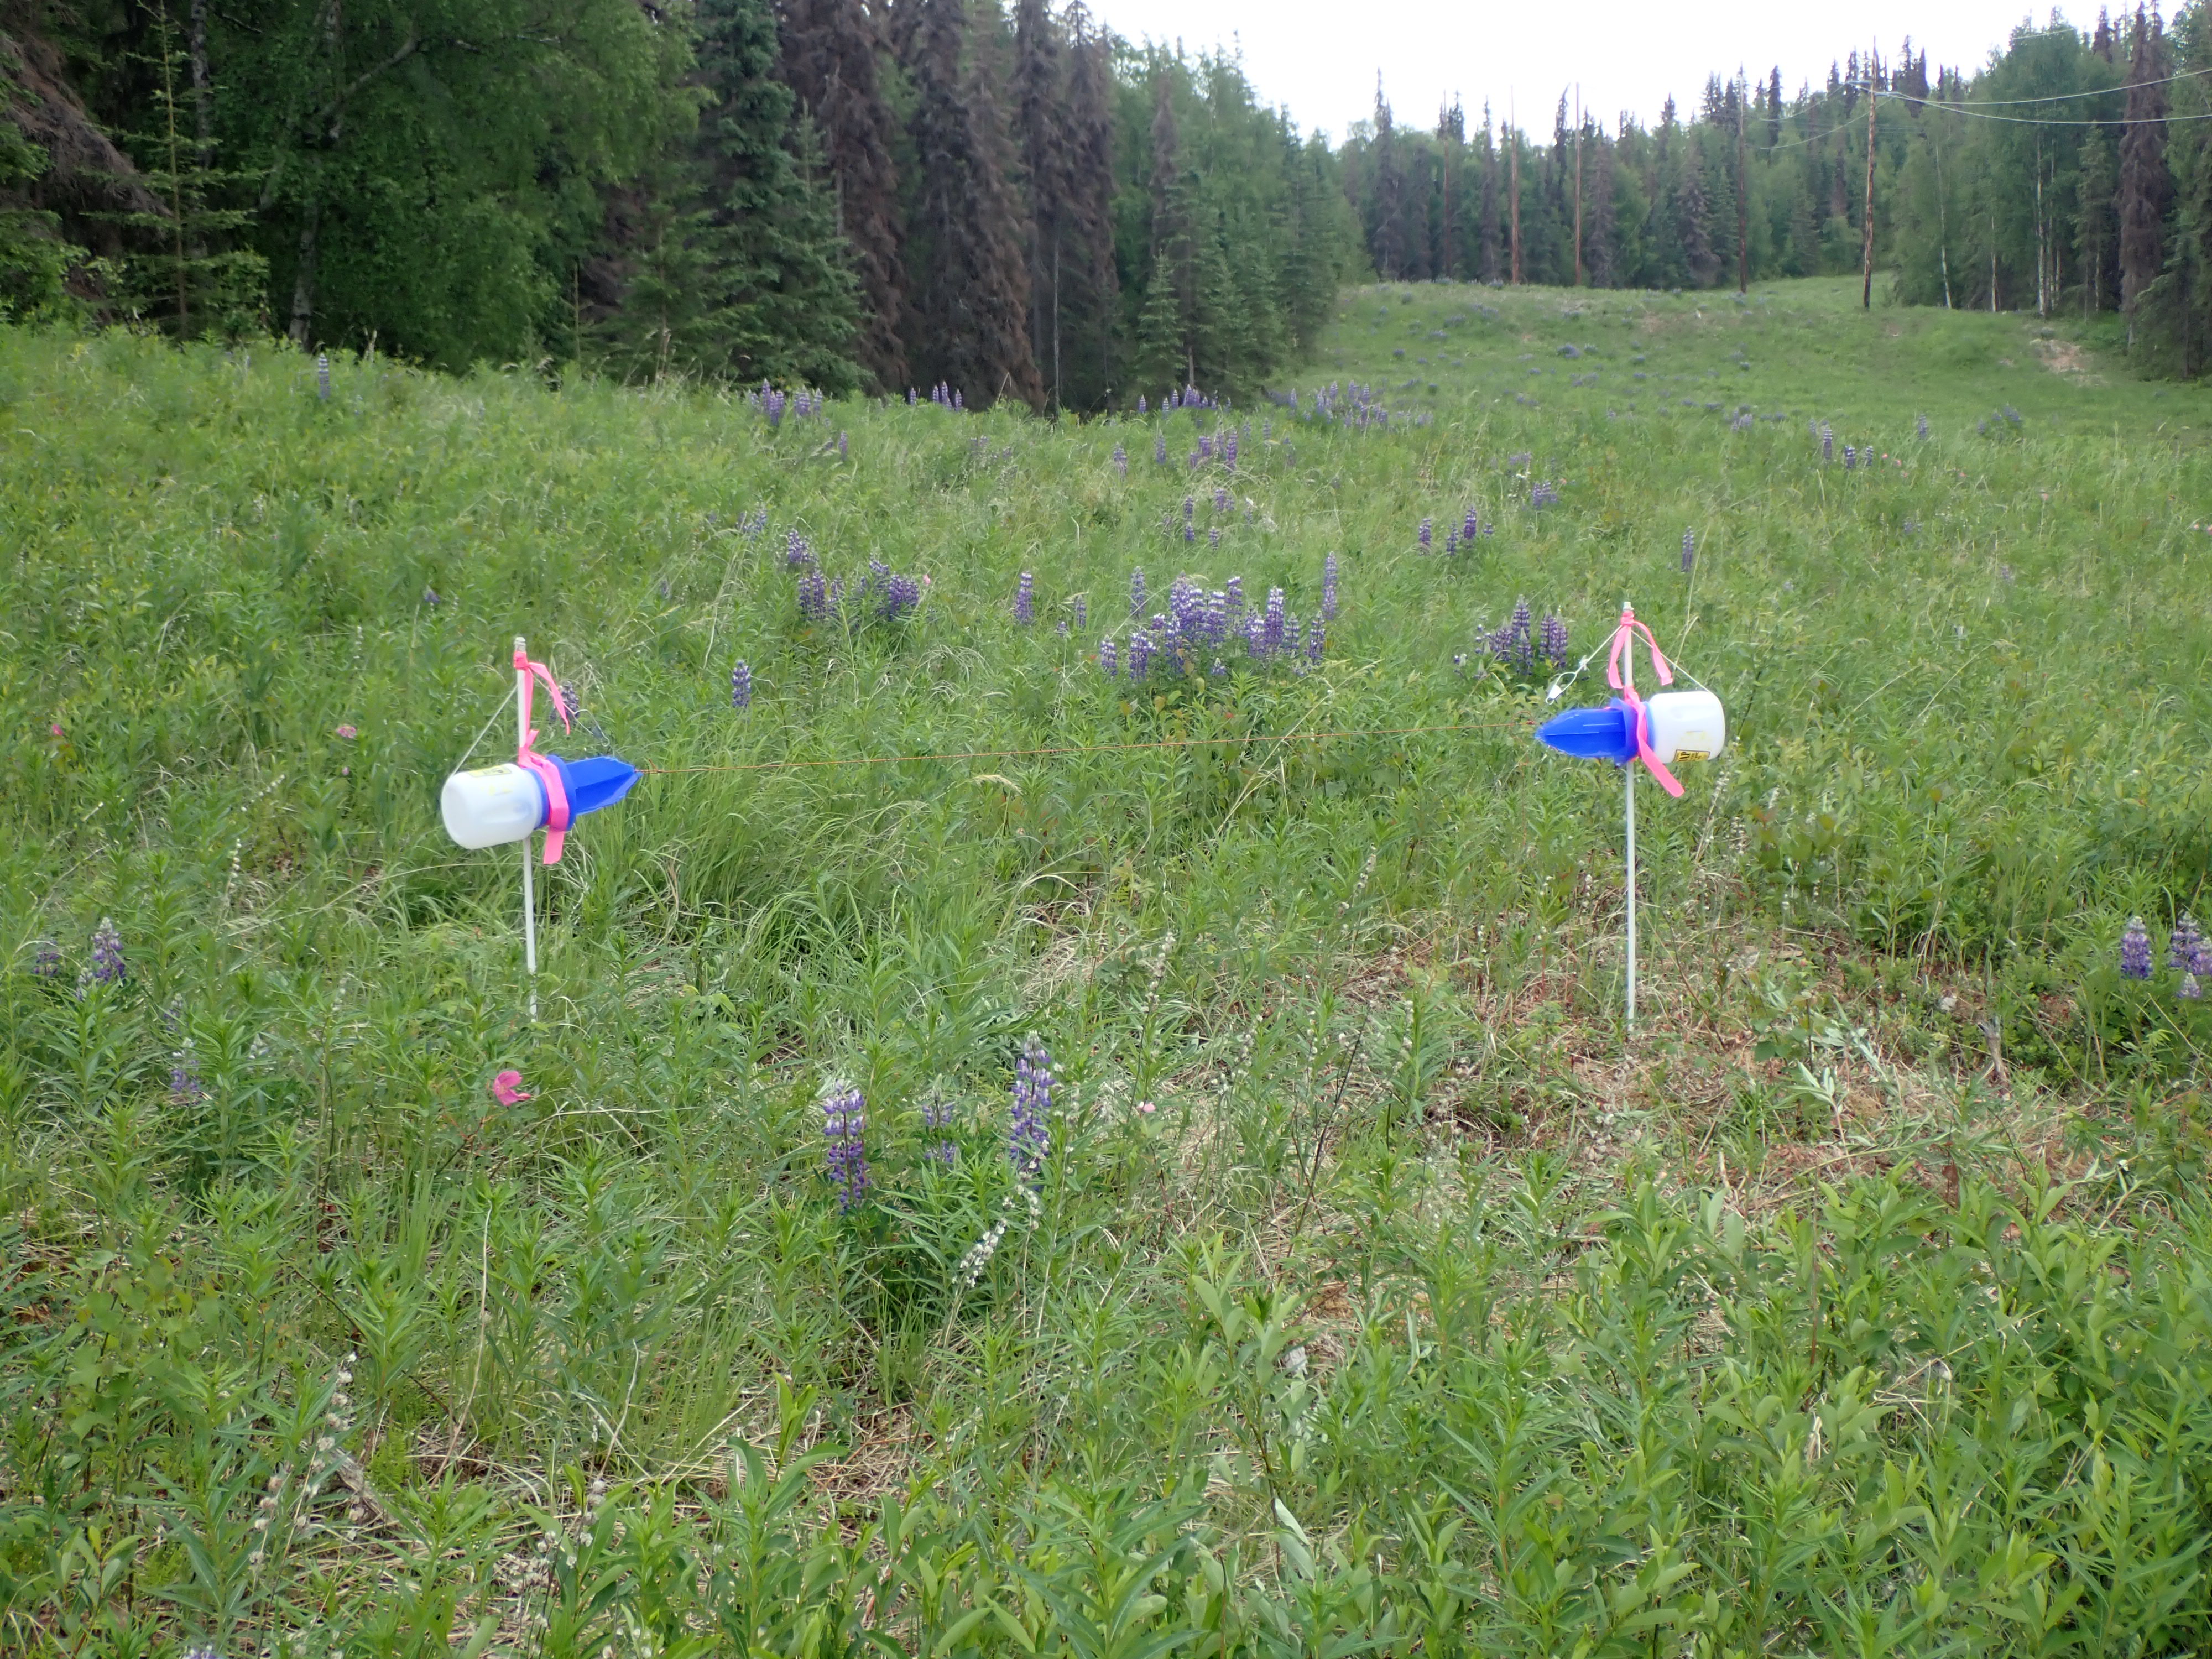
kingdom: Animalia
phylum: Arthropoda
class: Insecta
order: Hymenoptera
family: Apidae
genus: Bombus
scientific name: Bombus
